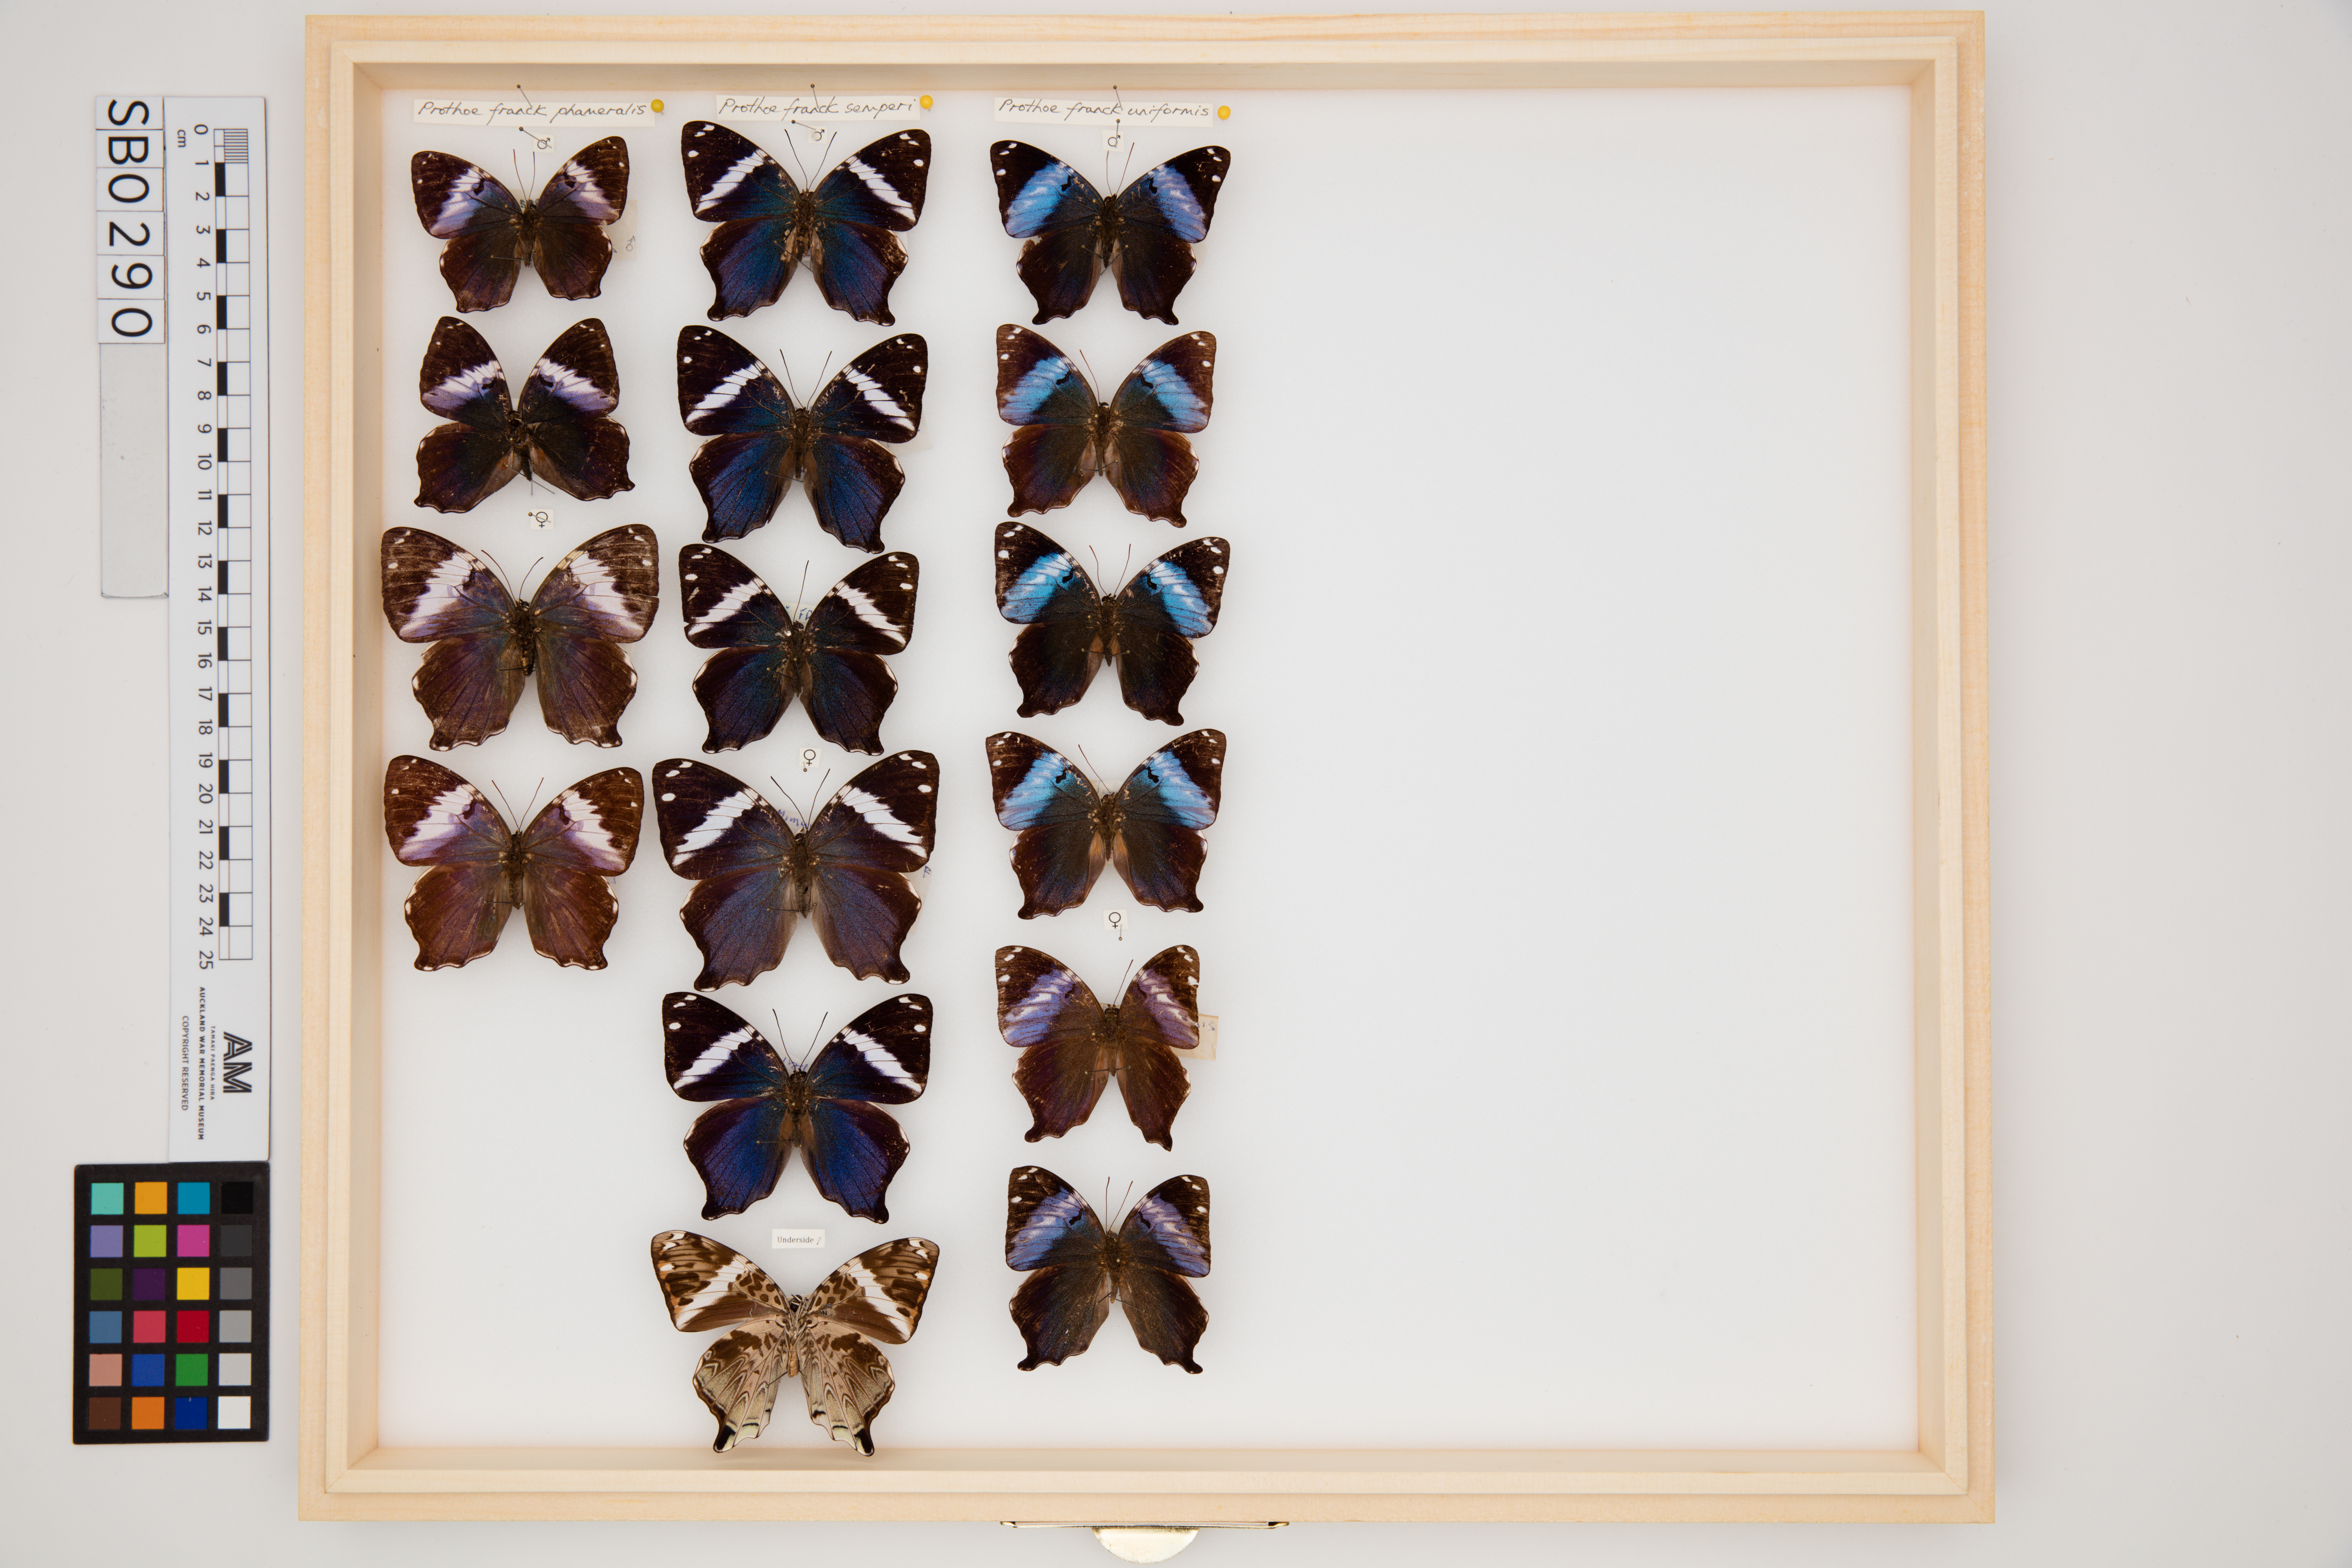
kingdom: Animalia
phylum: Arthropoda
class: Insecta
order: Lepidoptera
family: Nymphalidae
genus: Prothoe
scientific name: Prothoe frank
